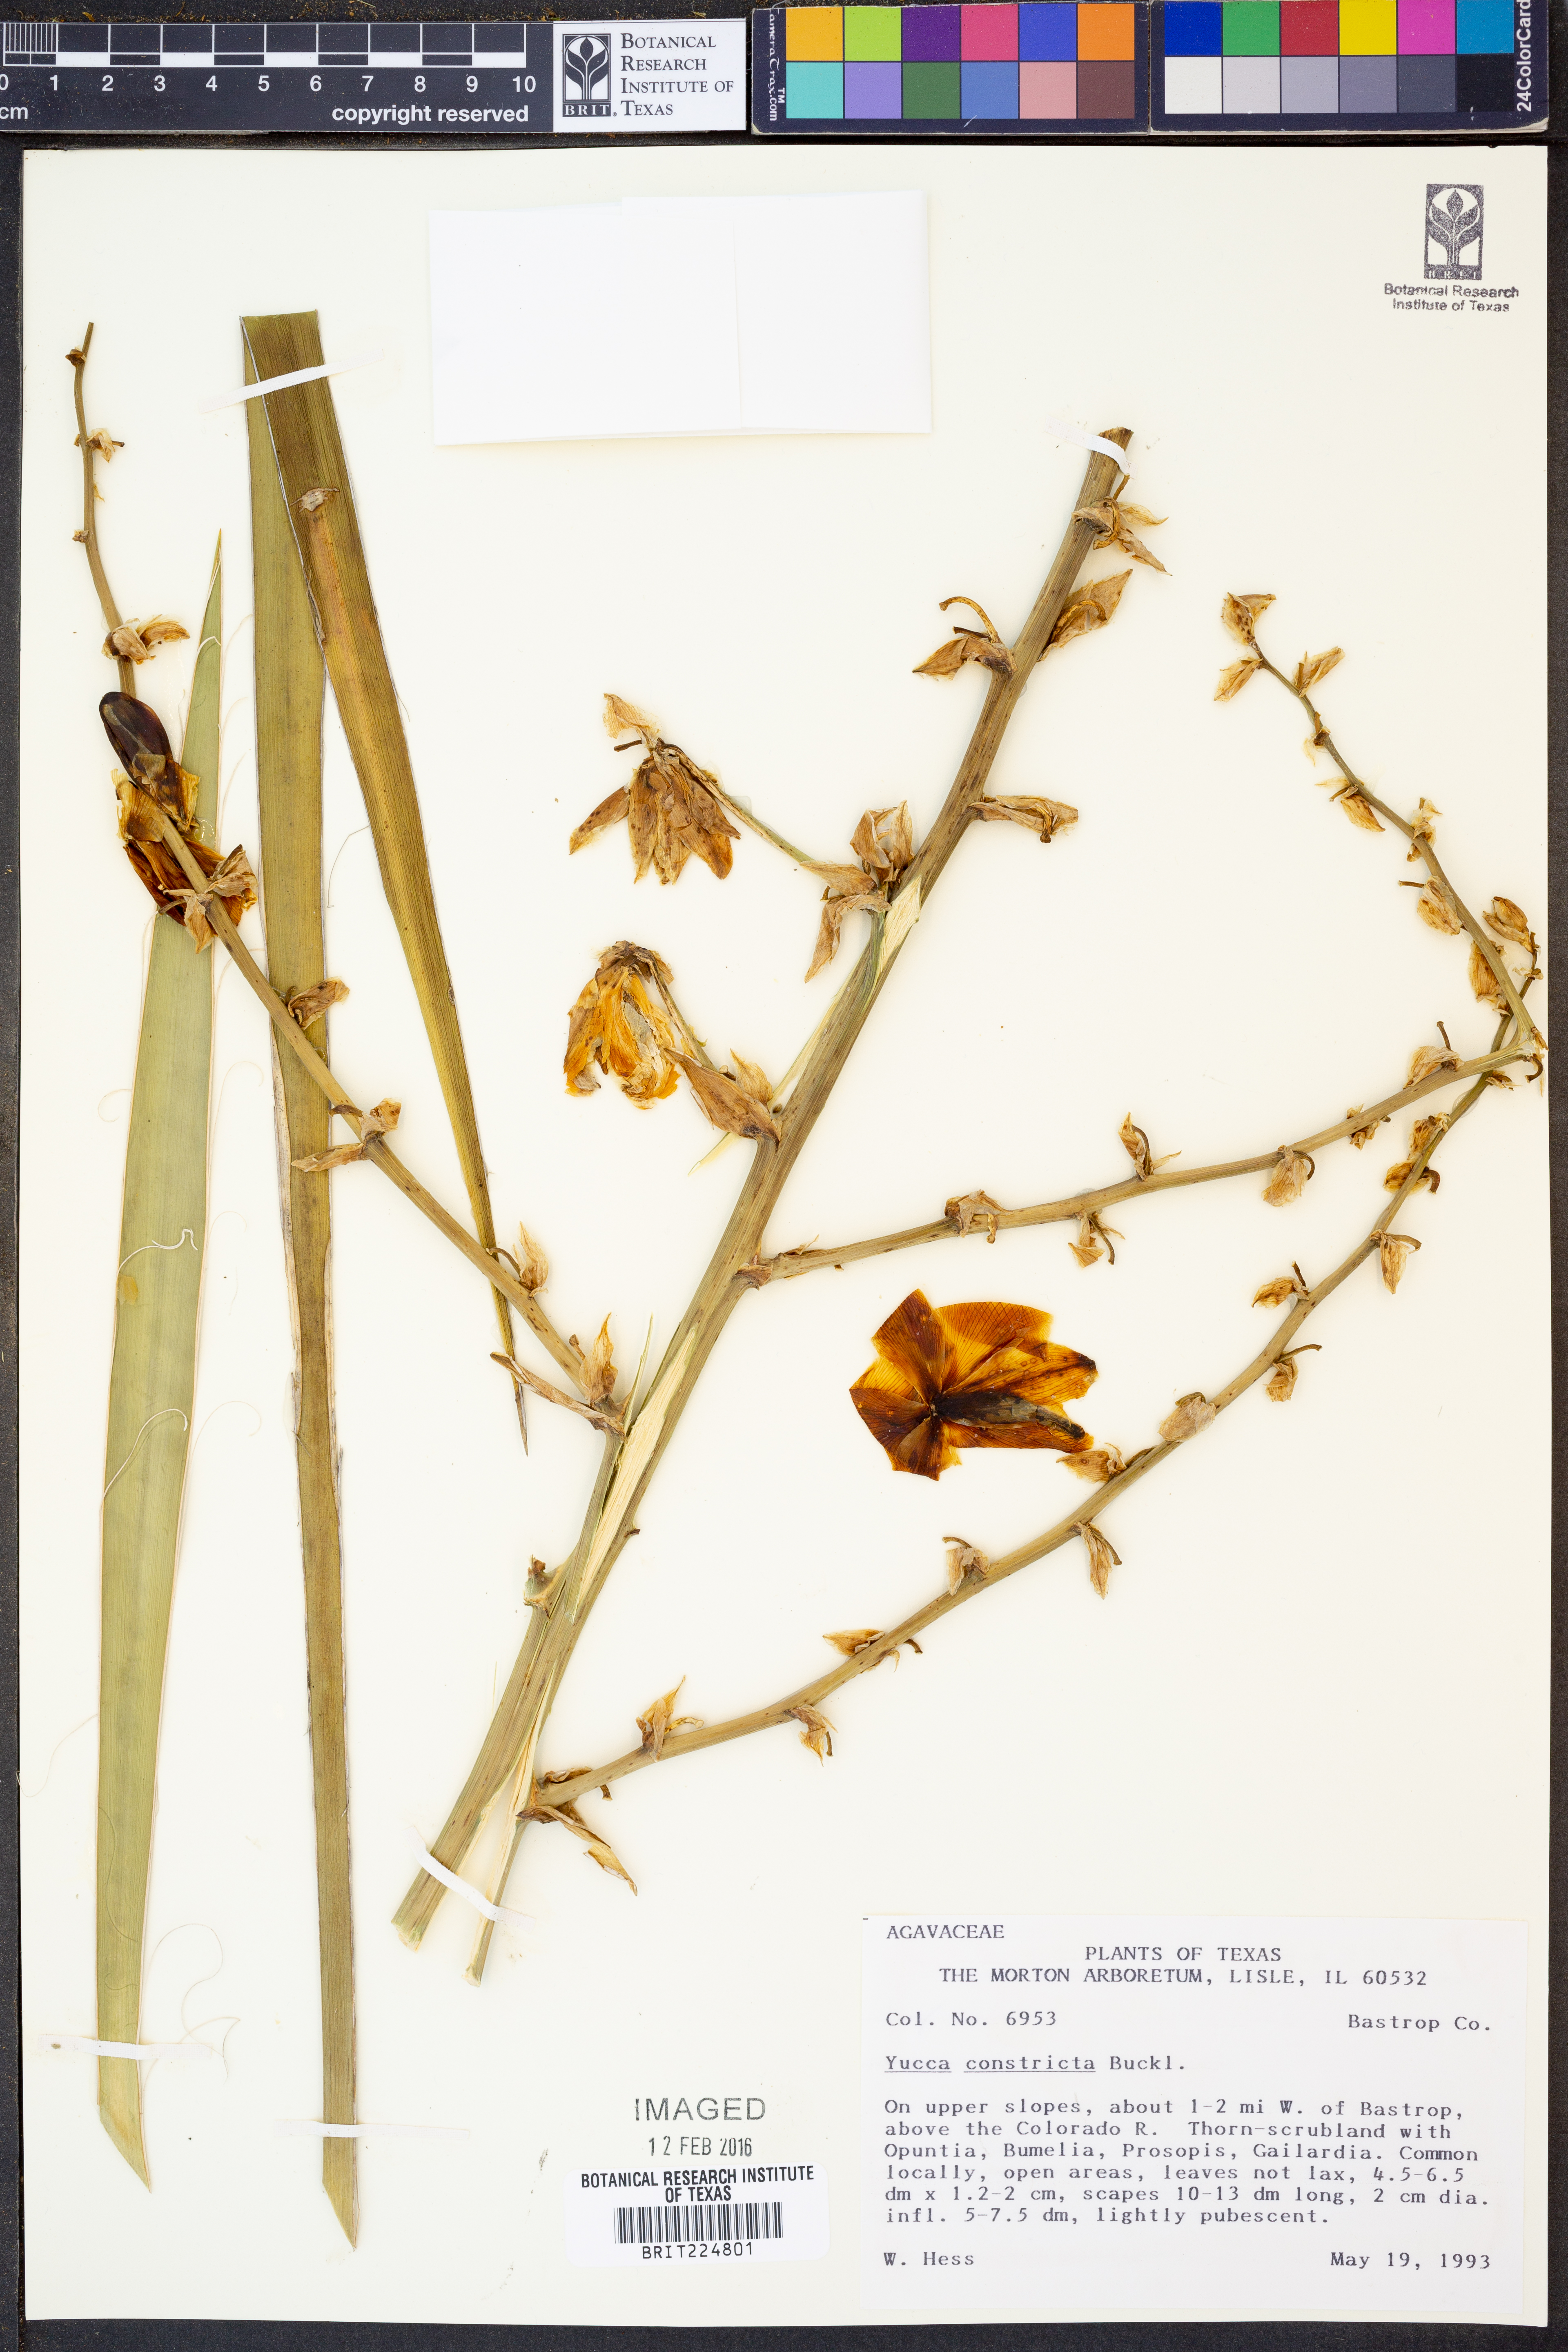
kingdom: Plantae
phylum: Tracheophyta
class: Liliopsida
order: Asparagales
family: Asparagaceae
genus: Yucca
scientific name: Yucca constricta
